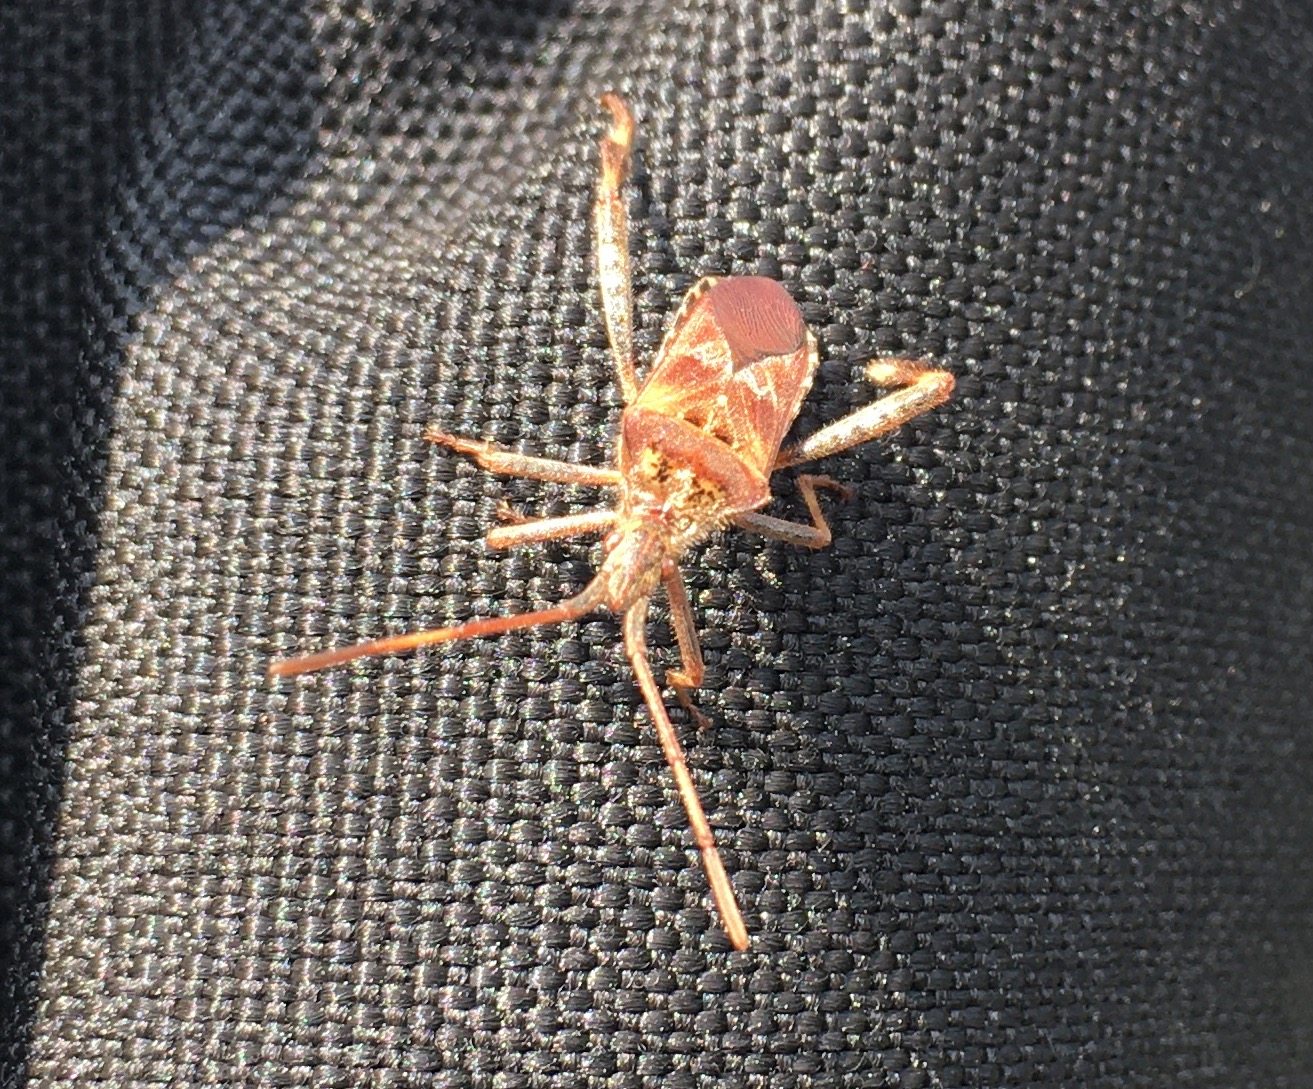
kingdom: Animalia
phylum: Arthropoda
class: Insecta
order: Hemiptera
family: Coreidae
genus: Leptoglossus
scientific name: Leptoglossus occidentalis
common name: Amerikansk fyrretæge
